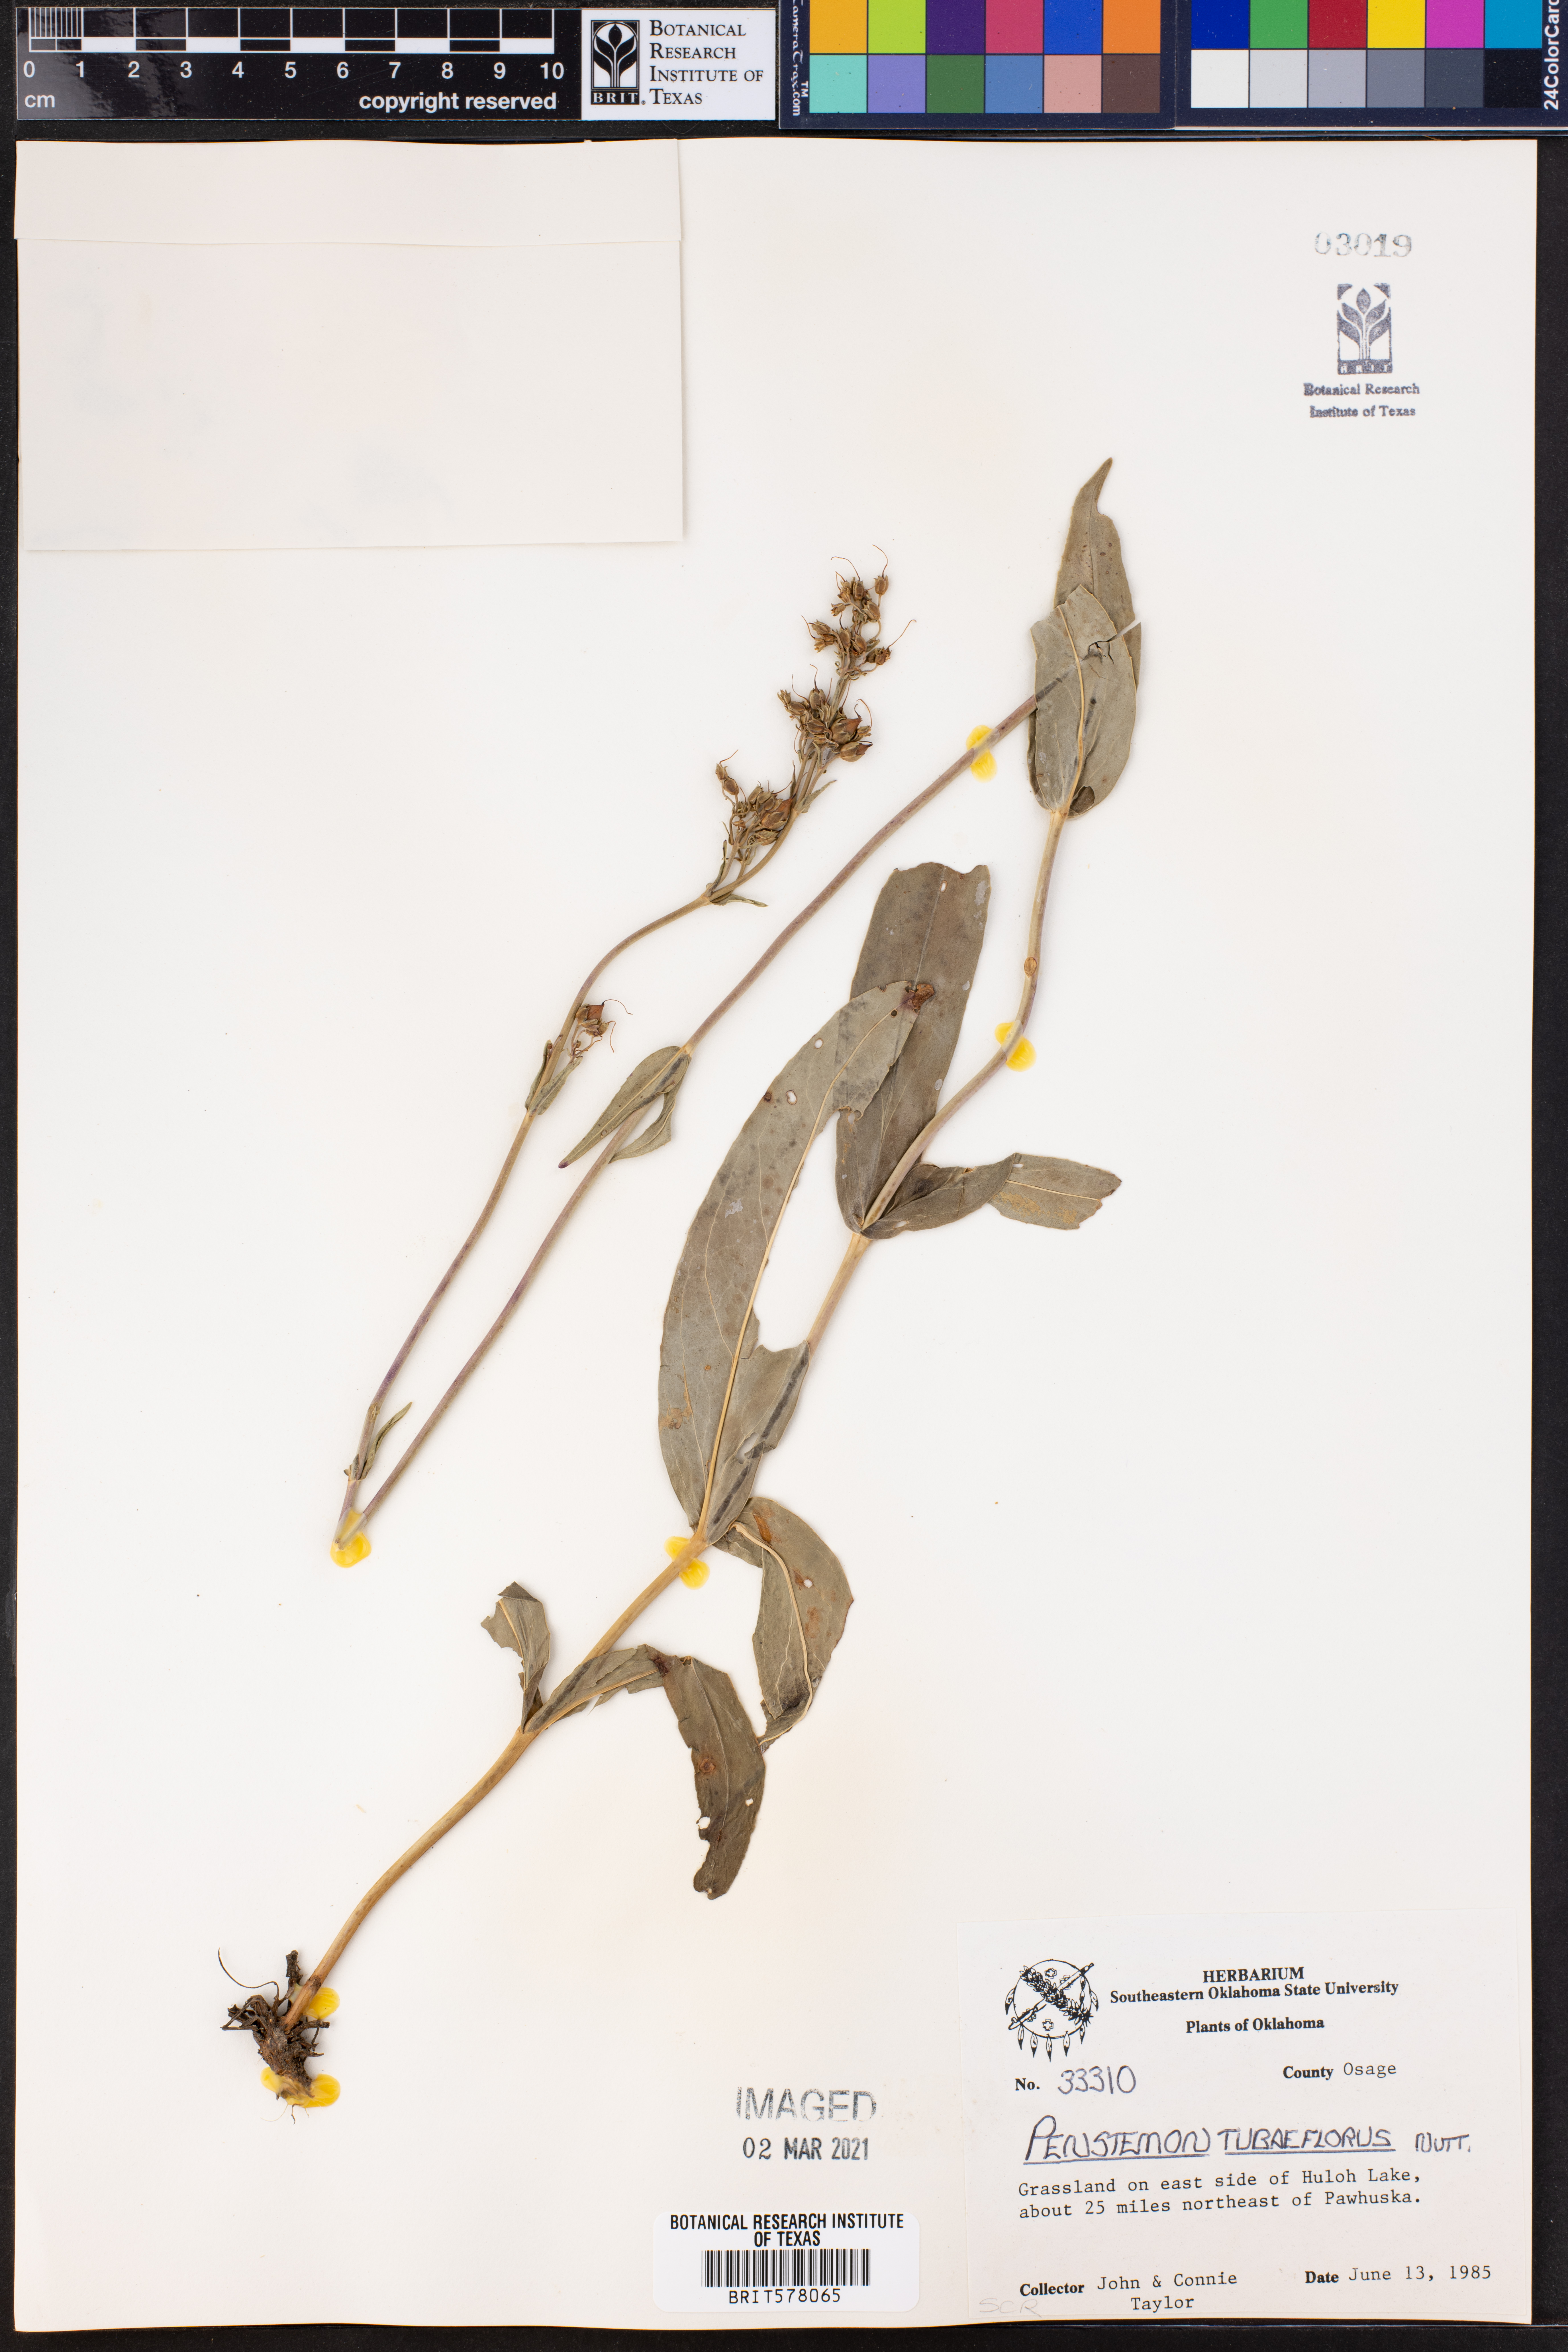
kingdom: Plantae
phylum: Tracheophyta
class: Magnoliopsida
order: Lamiales
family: Plantaginaceae
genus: Penstemon
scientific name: Penstemon tubaeflorus
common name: White wand beardtongue
